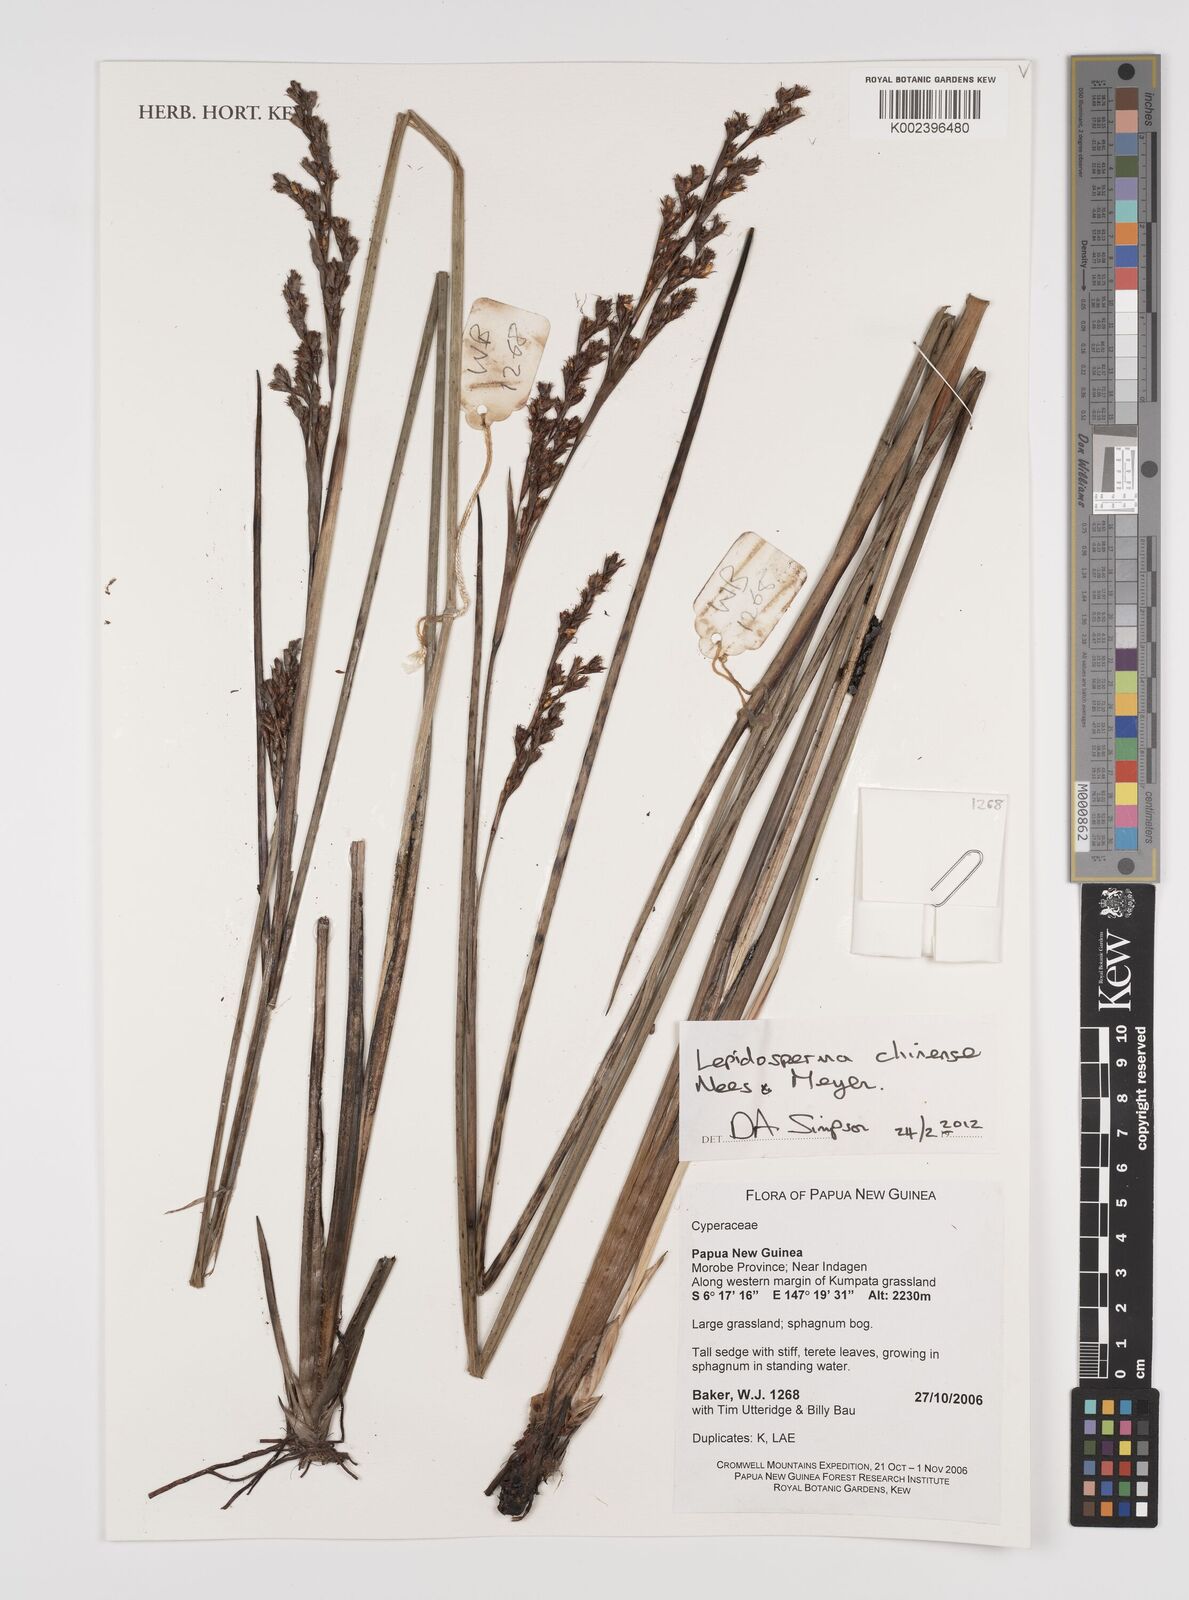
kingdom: Plantae
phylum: Tracheophyta
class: Liliopsida
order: Poales
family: Cyperaceae
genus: Lepidosperma
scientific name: Lepidosperma chinense
